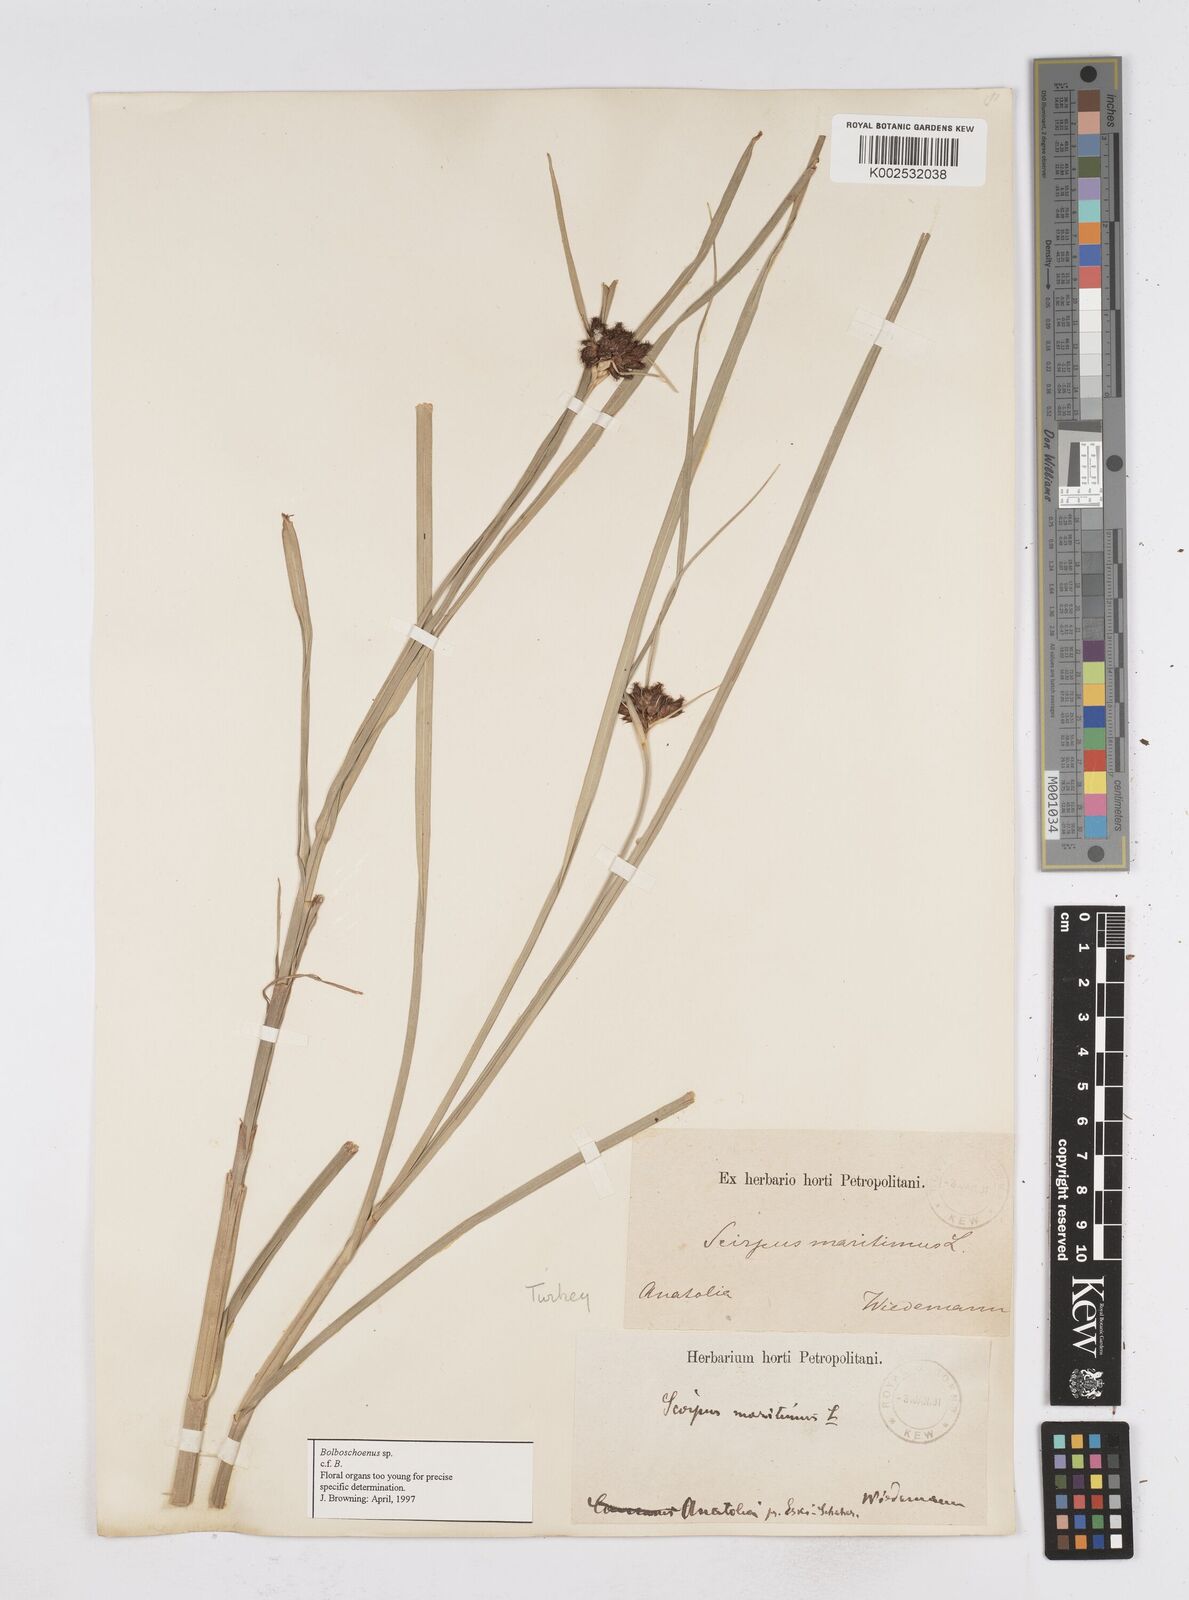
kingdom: Plantae
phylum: Tracheophyta
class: Liliopsida
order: Poales
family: Cyperaceae
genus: Bolboschoenus
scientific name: Bolboschoenus maritimus
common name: Sea club-rush
